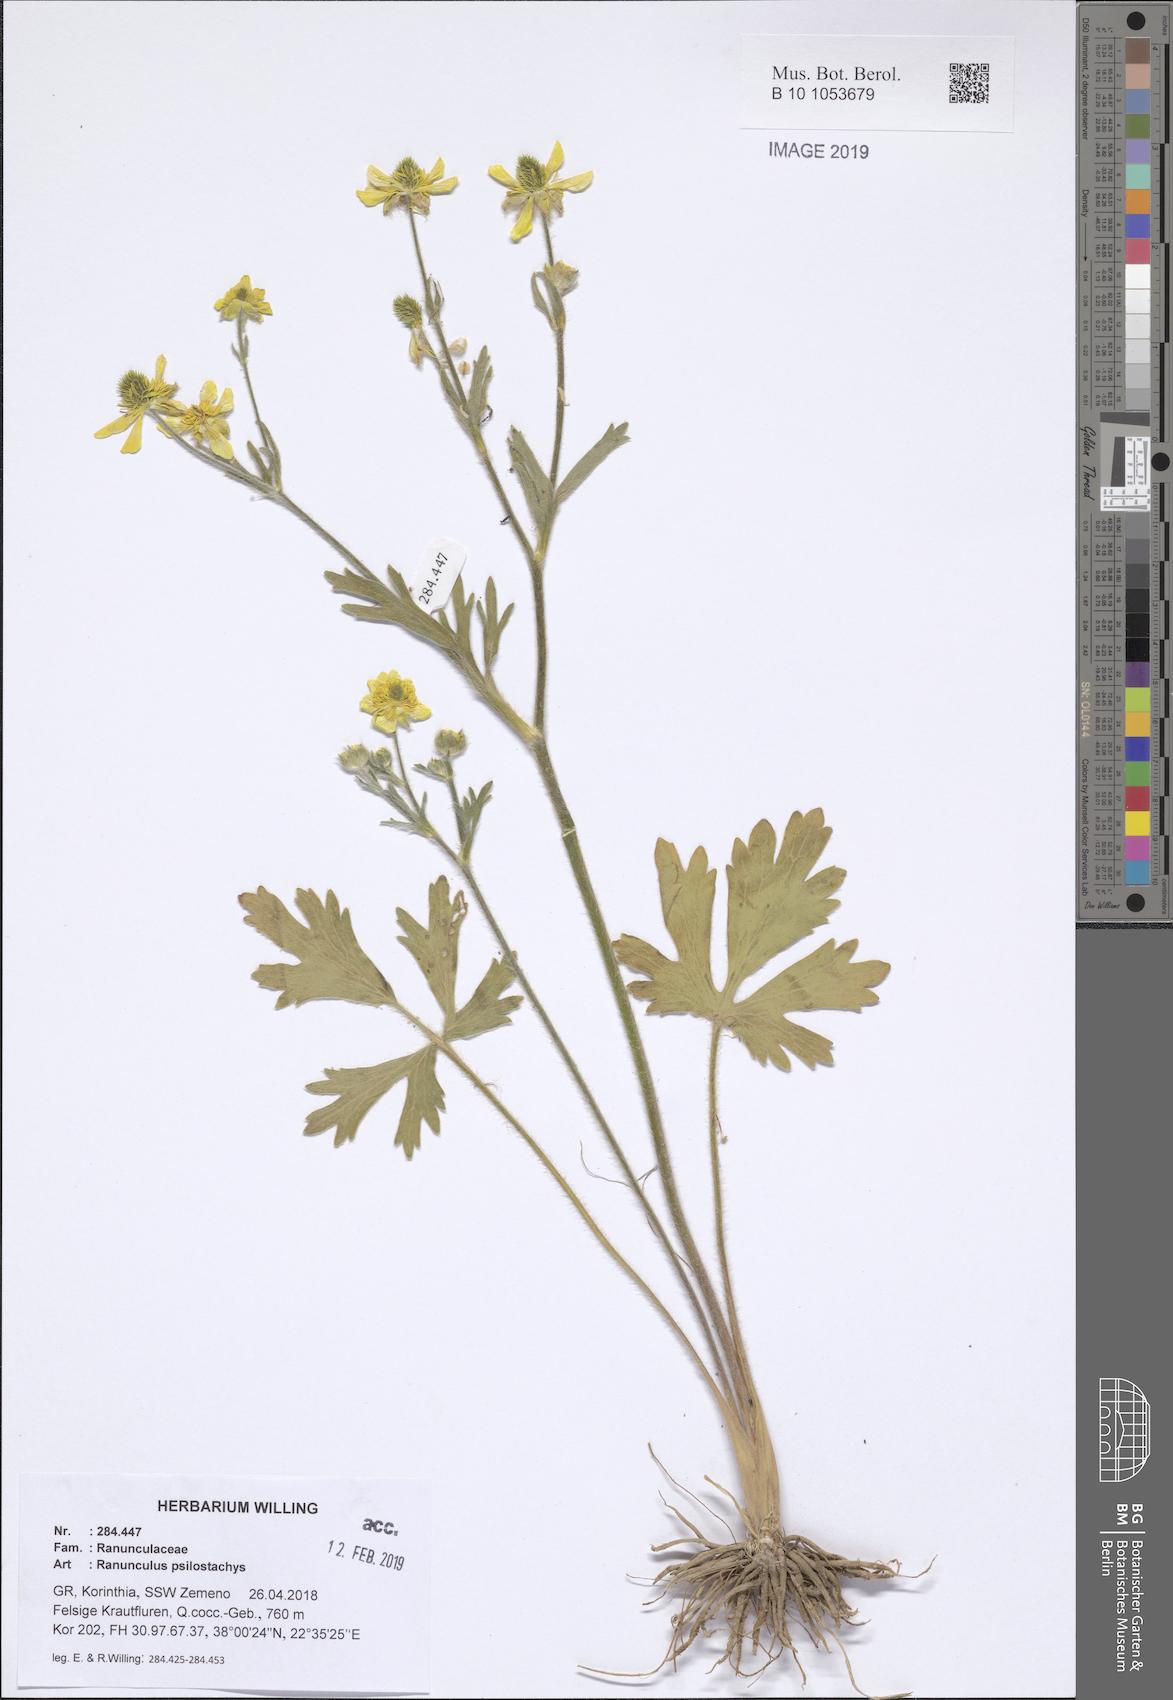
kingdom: Plantae
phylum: Tracheophyta
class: Magnoliopsida
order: Ranunculales
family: Ranunculaceae
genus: Ranunculus
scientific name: Ranunculus psilostachys
